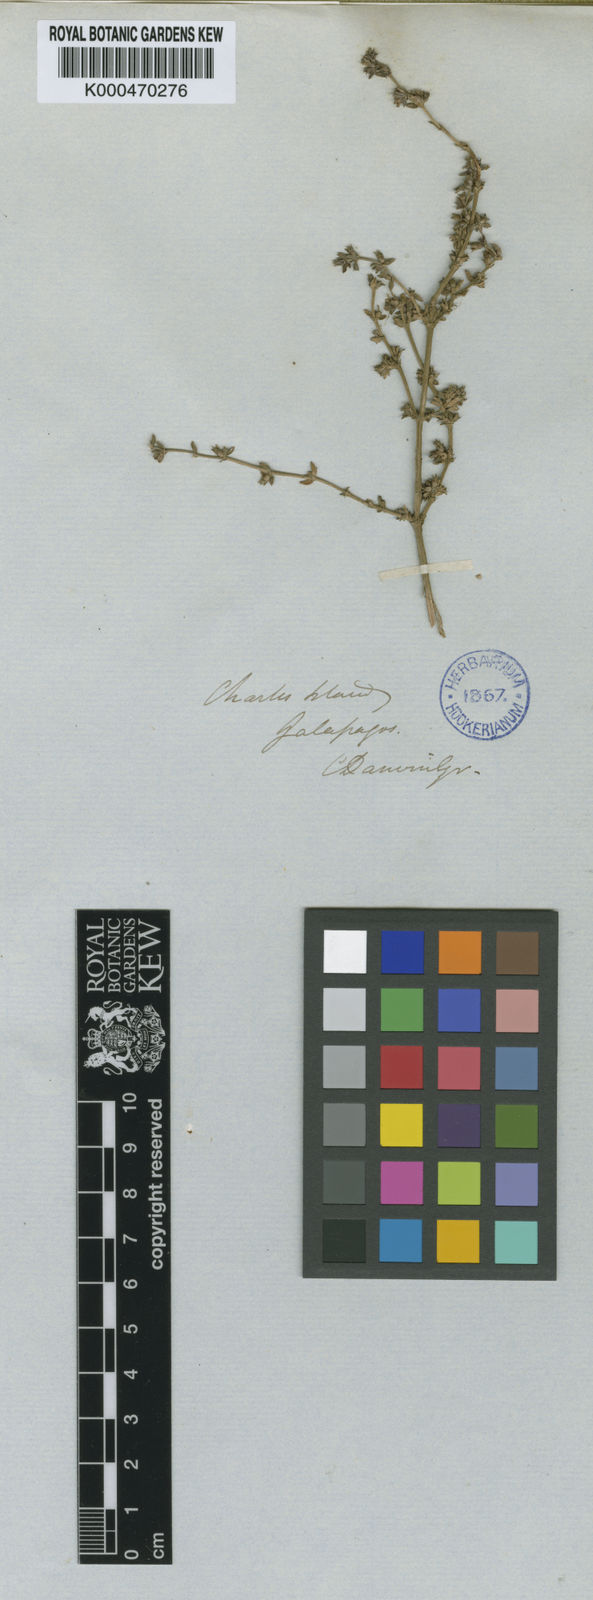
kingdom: Plantae
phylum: Tracheophyta
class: Magnoliopsida
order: Gentianales
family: Rubiaceae
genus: Spermacoce
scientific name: Spermacoce divaricata
